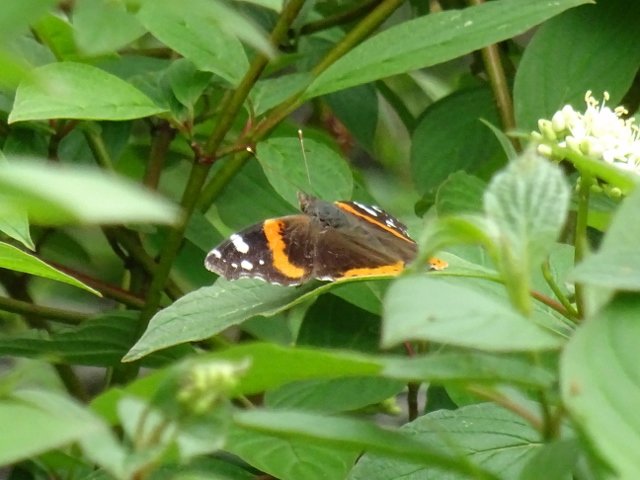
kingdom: Animalia
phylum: Arthropoda
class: Insecta
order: Lepidoptera
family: Nymphalidae
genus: Vanessa
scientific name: Vanessa atalanta
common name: Red Admiral
